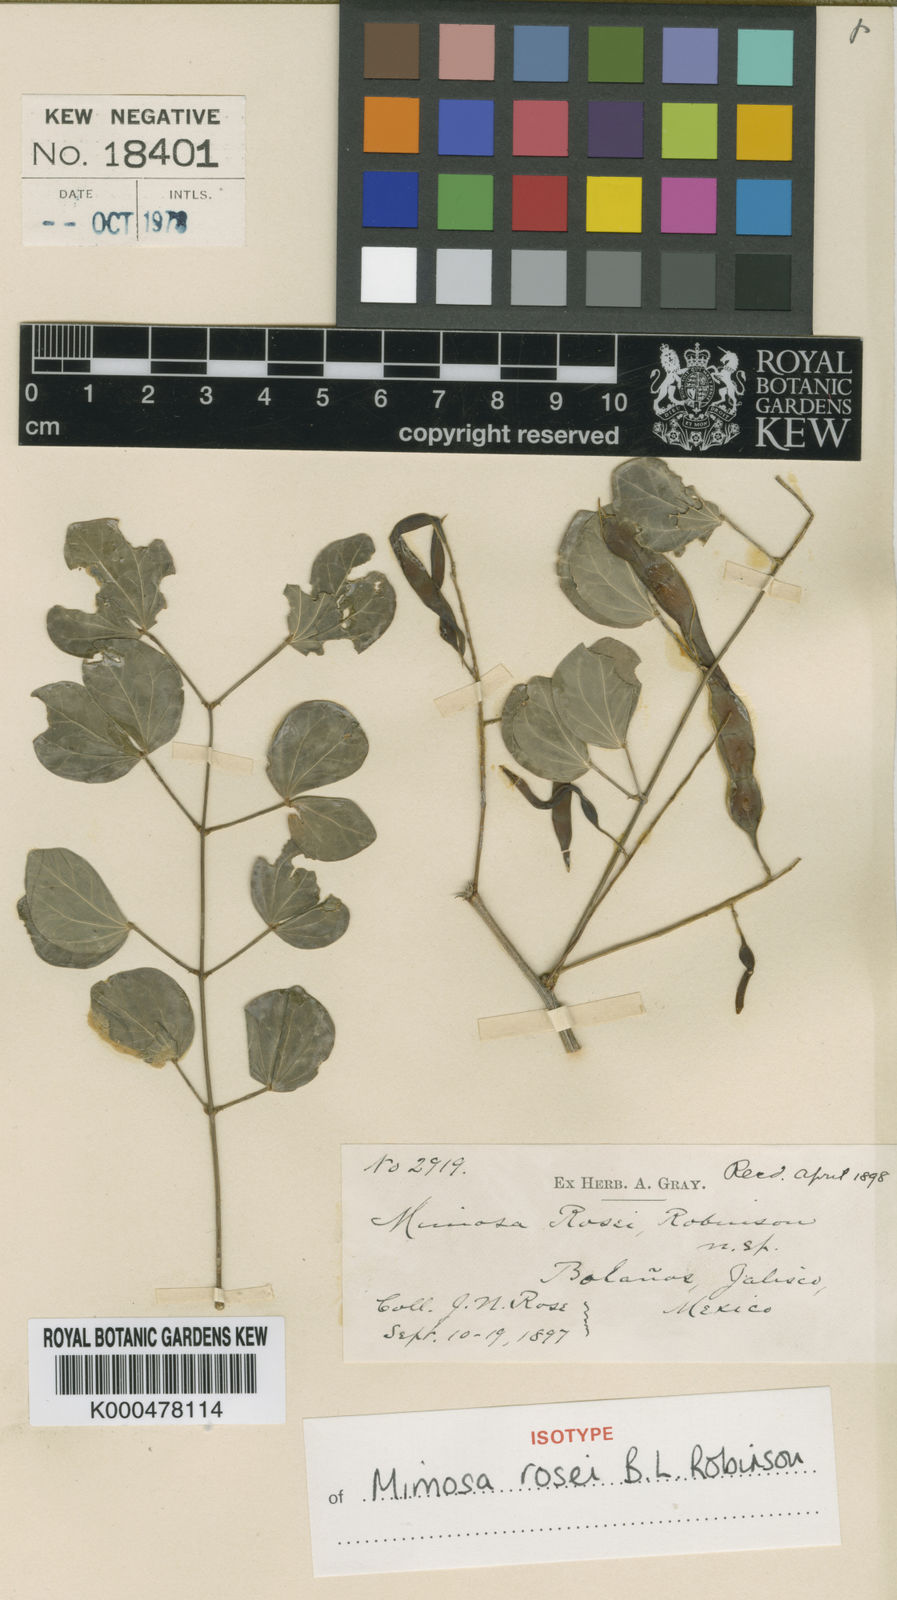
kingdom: Plantae
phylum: Tracheophyta
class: Magnoliopsida
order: Fabales
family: Fabaceae
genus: Mimosa
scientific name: Mimosa rosei
